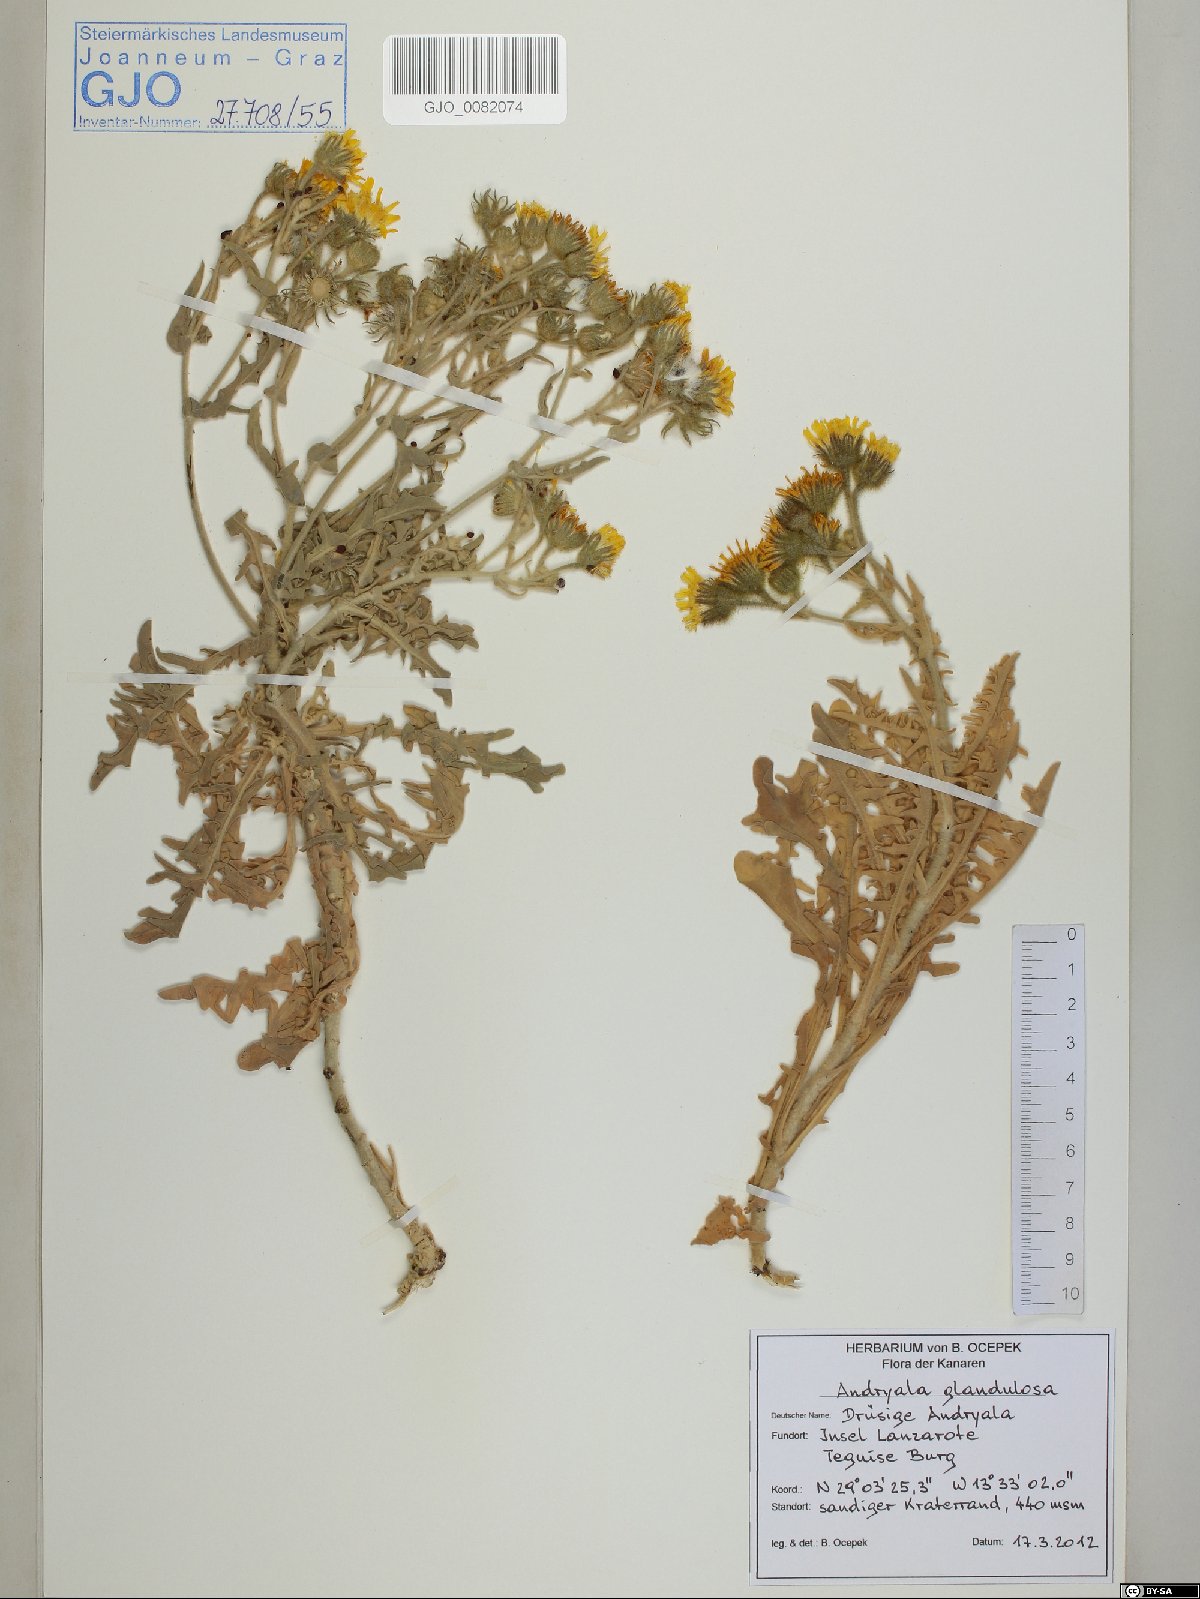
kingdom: Plantae
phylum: Tracheophyta
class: Magnoliopsida
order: Asterales
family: Asteraceae
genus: Andryala
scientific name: Andryala glandulosa
